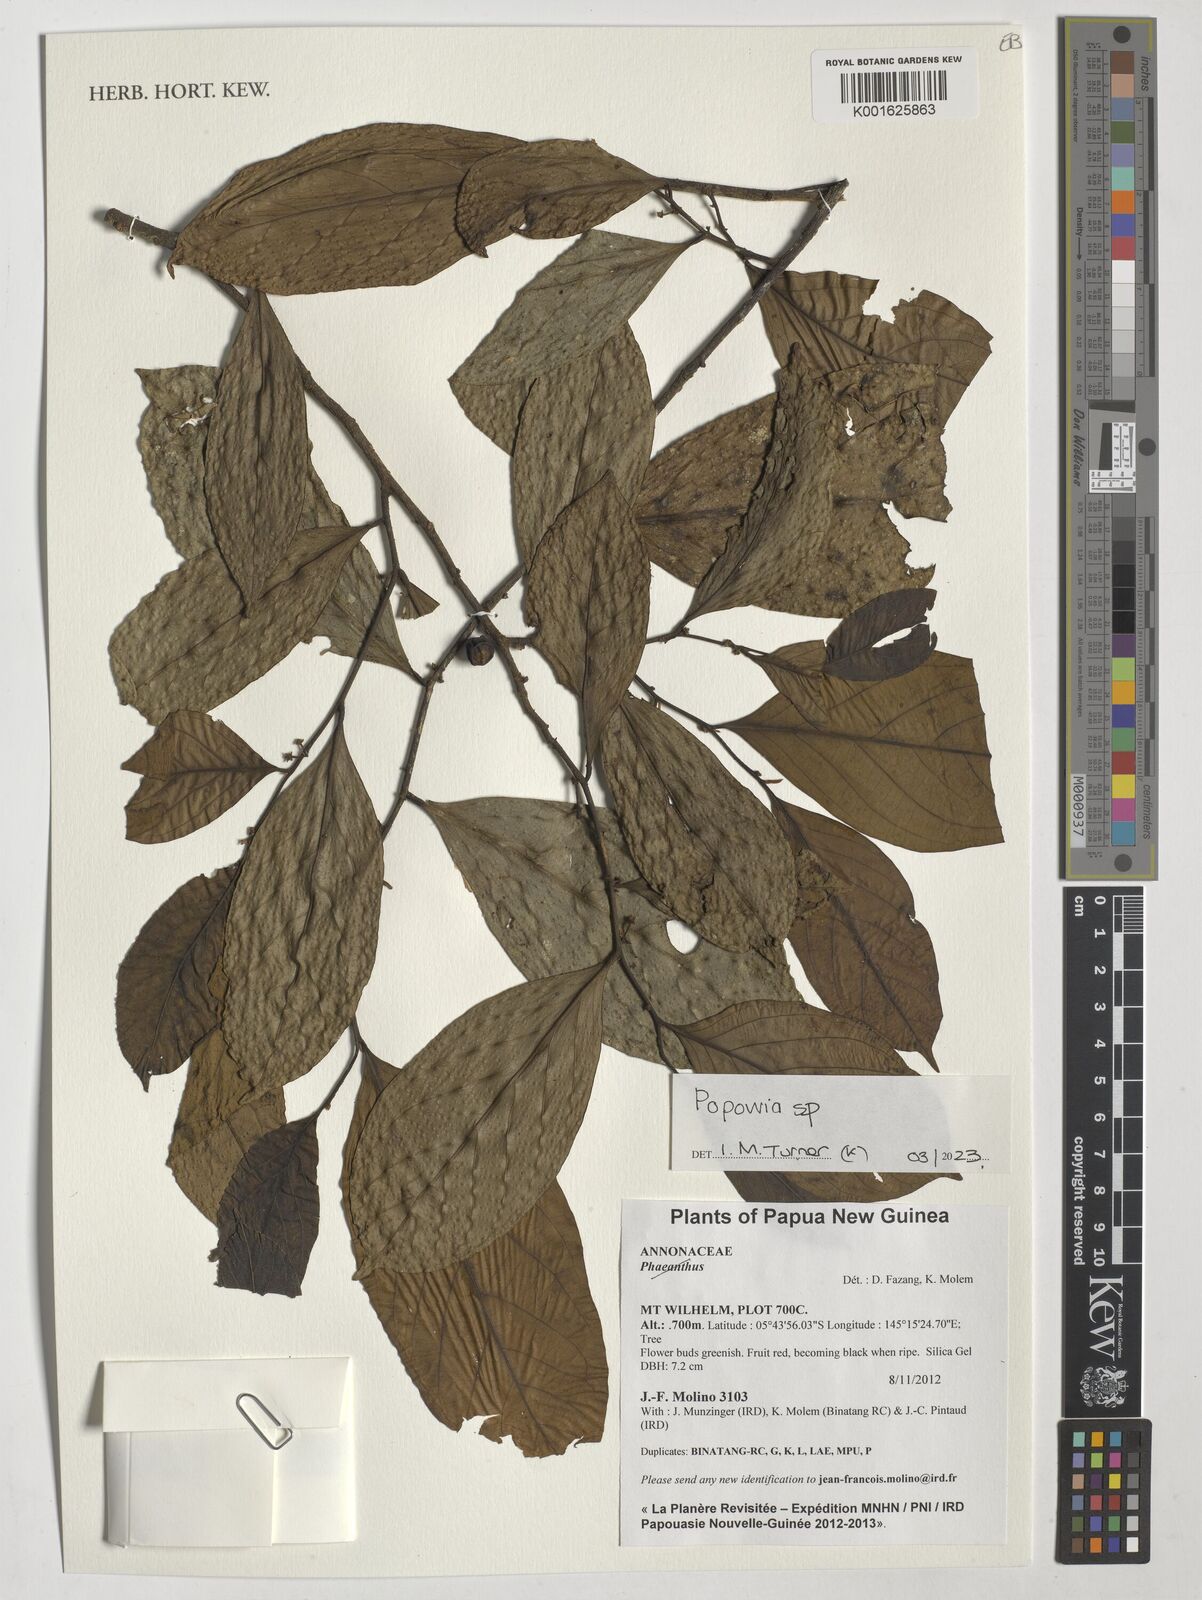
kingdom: Plantae
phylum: Tracheophyta
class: Magnoliopsida
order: Magnoliales
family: Annonaceae
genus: Popowia
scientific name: Popowia
